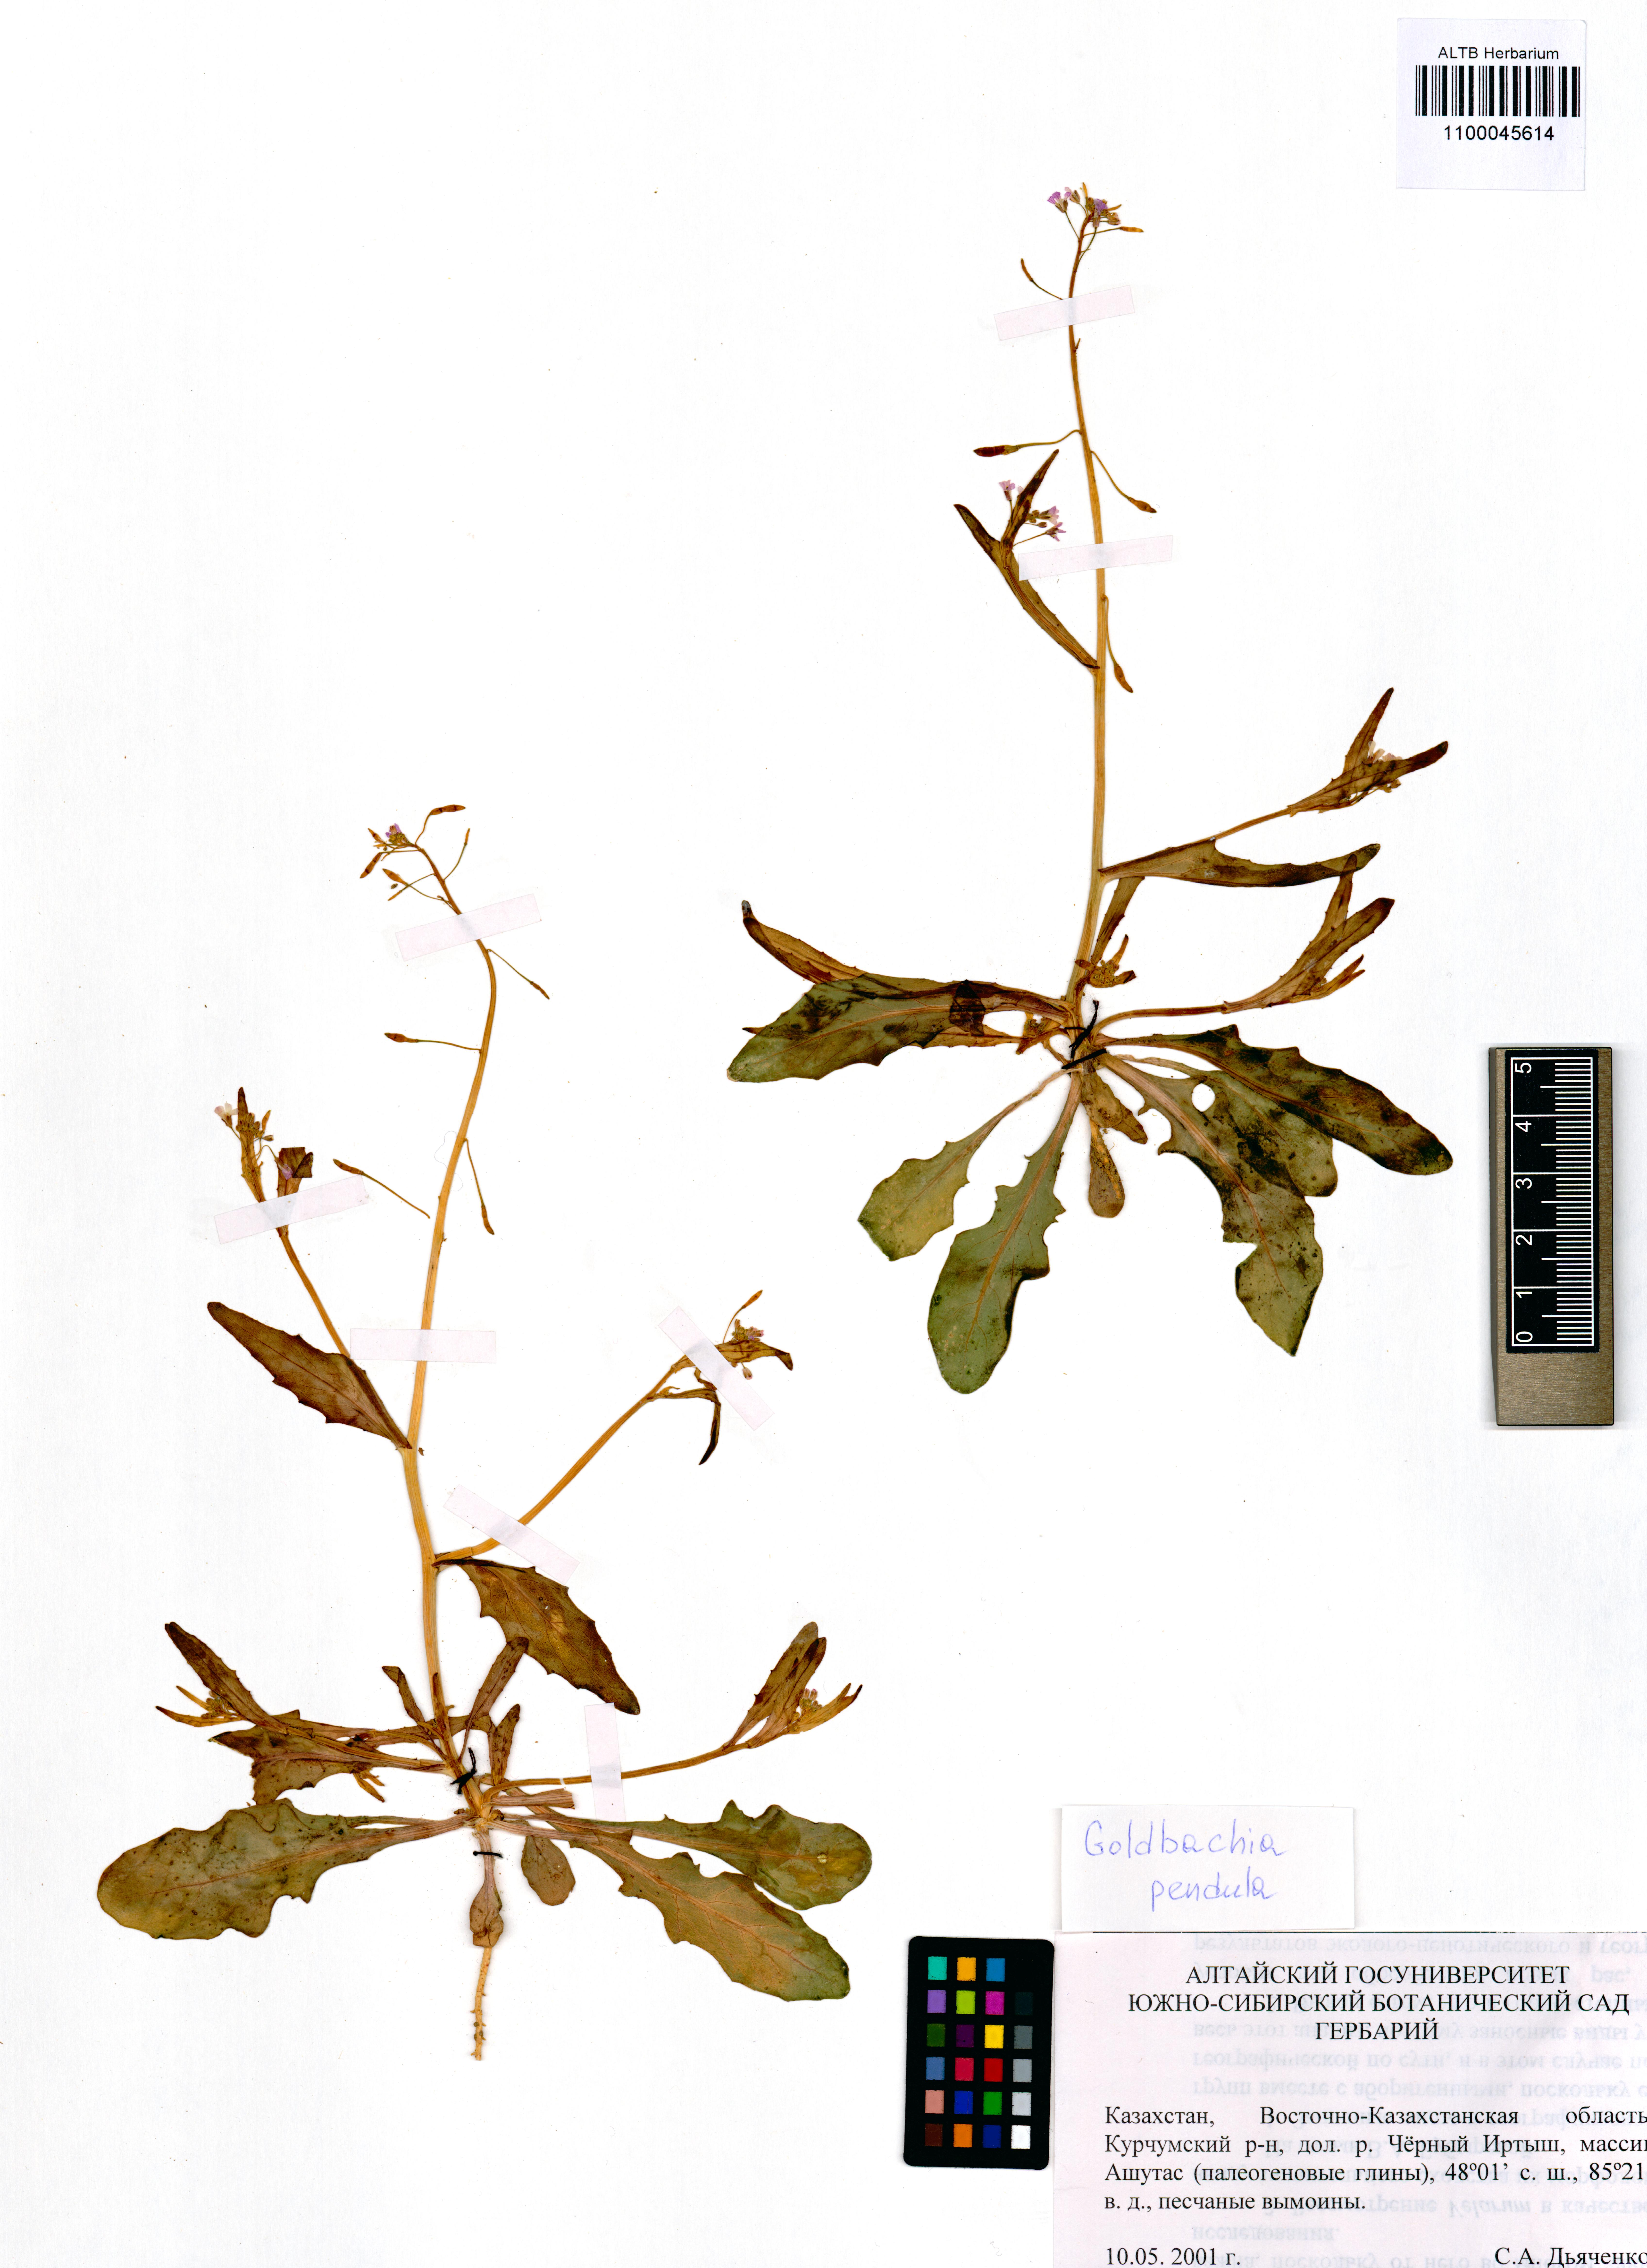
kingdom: Plantae
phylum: Tracheophyta
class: Magnoliopsida
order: Brassicales
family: Brassicaceae
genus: Goldbachia
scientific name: Goldbachia pendula
